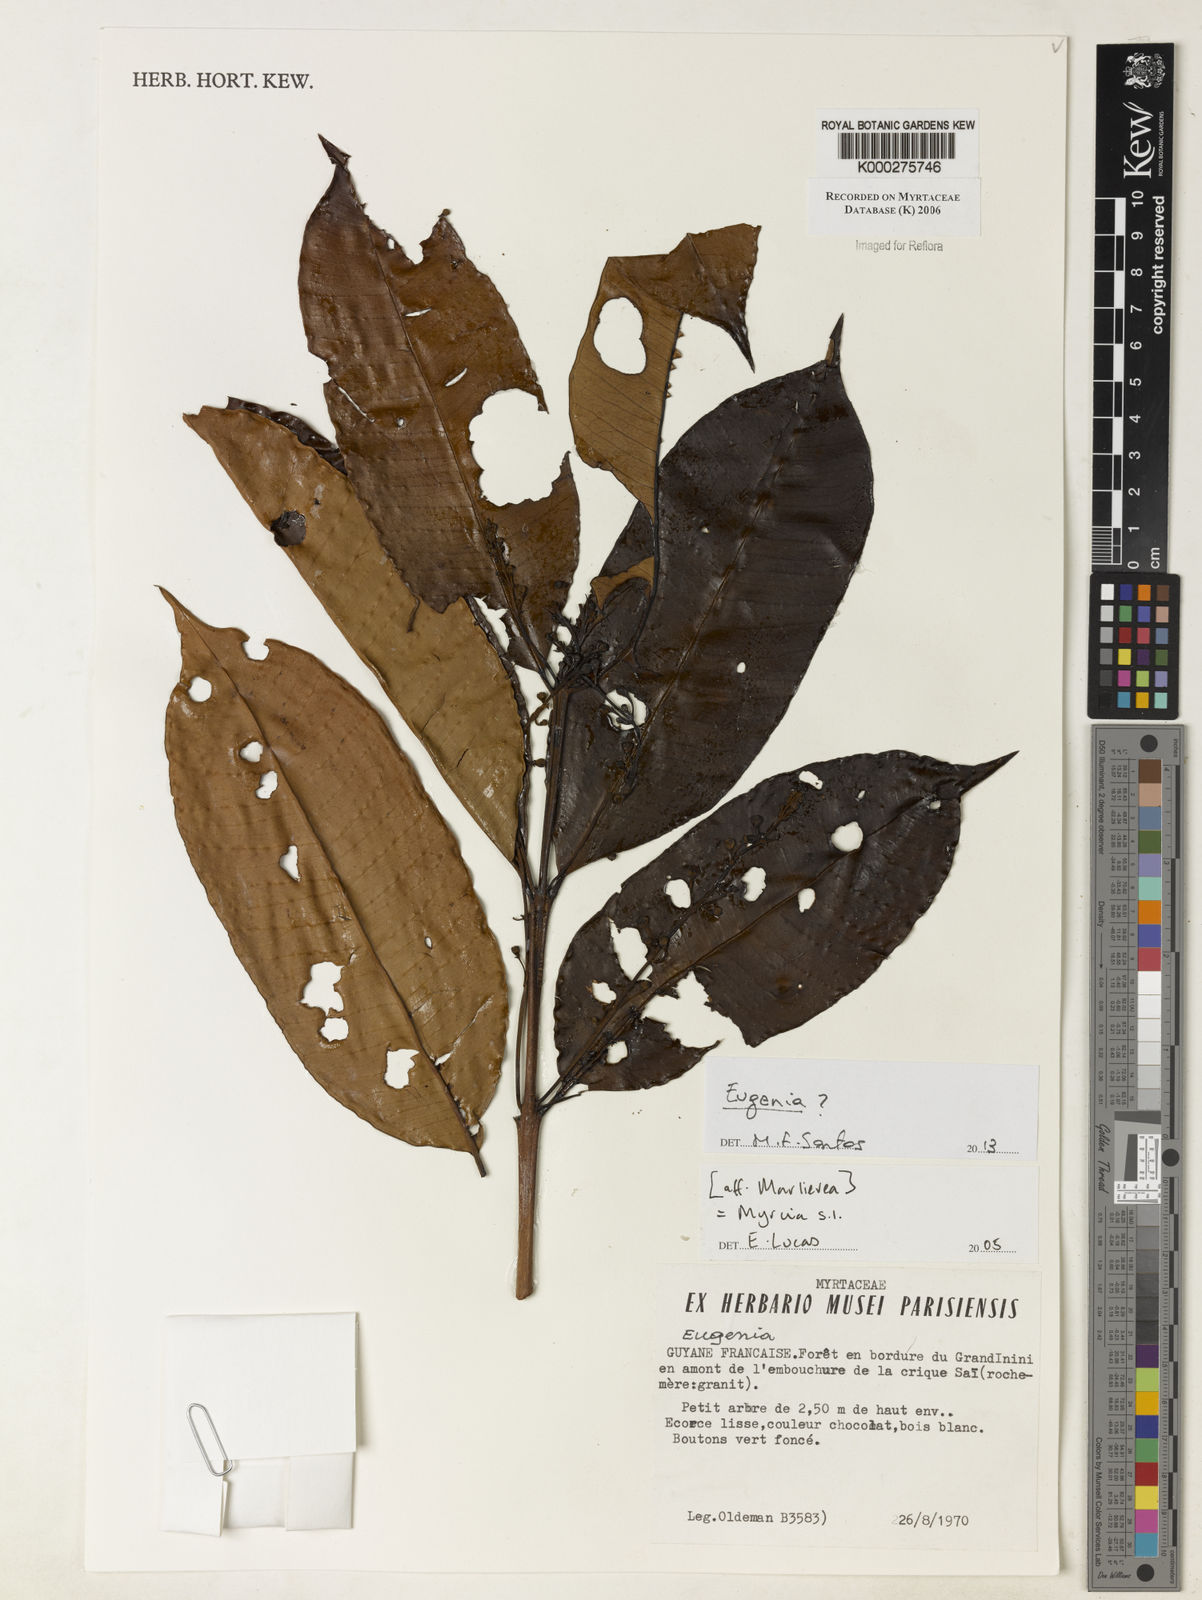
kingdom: Plantae
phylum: Tracheophyta
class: Magnoliopsida
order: Myrtales
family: Myrtaceae
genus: Eugenia
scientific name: Eugenia patens
